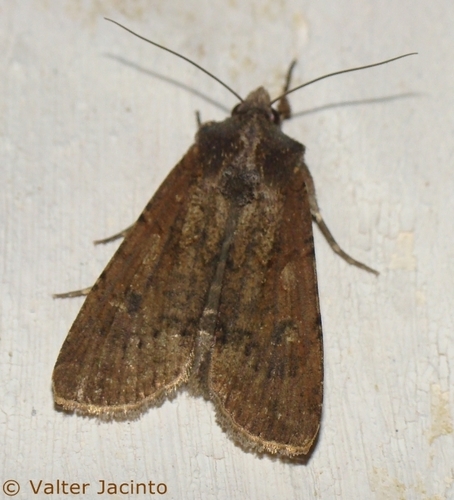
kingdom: Animalia
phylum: Arthropoda
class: Insecta
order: Lepidoptera
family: Noctuidae
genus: Peridroma
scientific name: Peridroma saucia
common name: Pearly underwing
